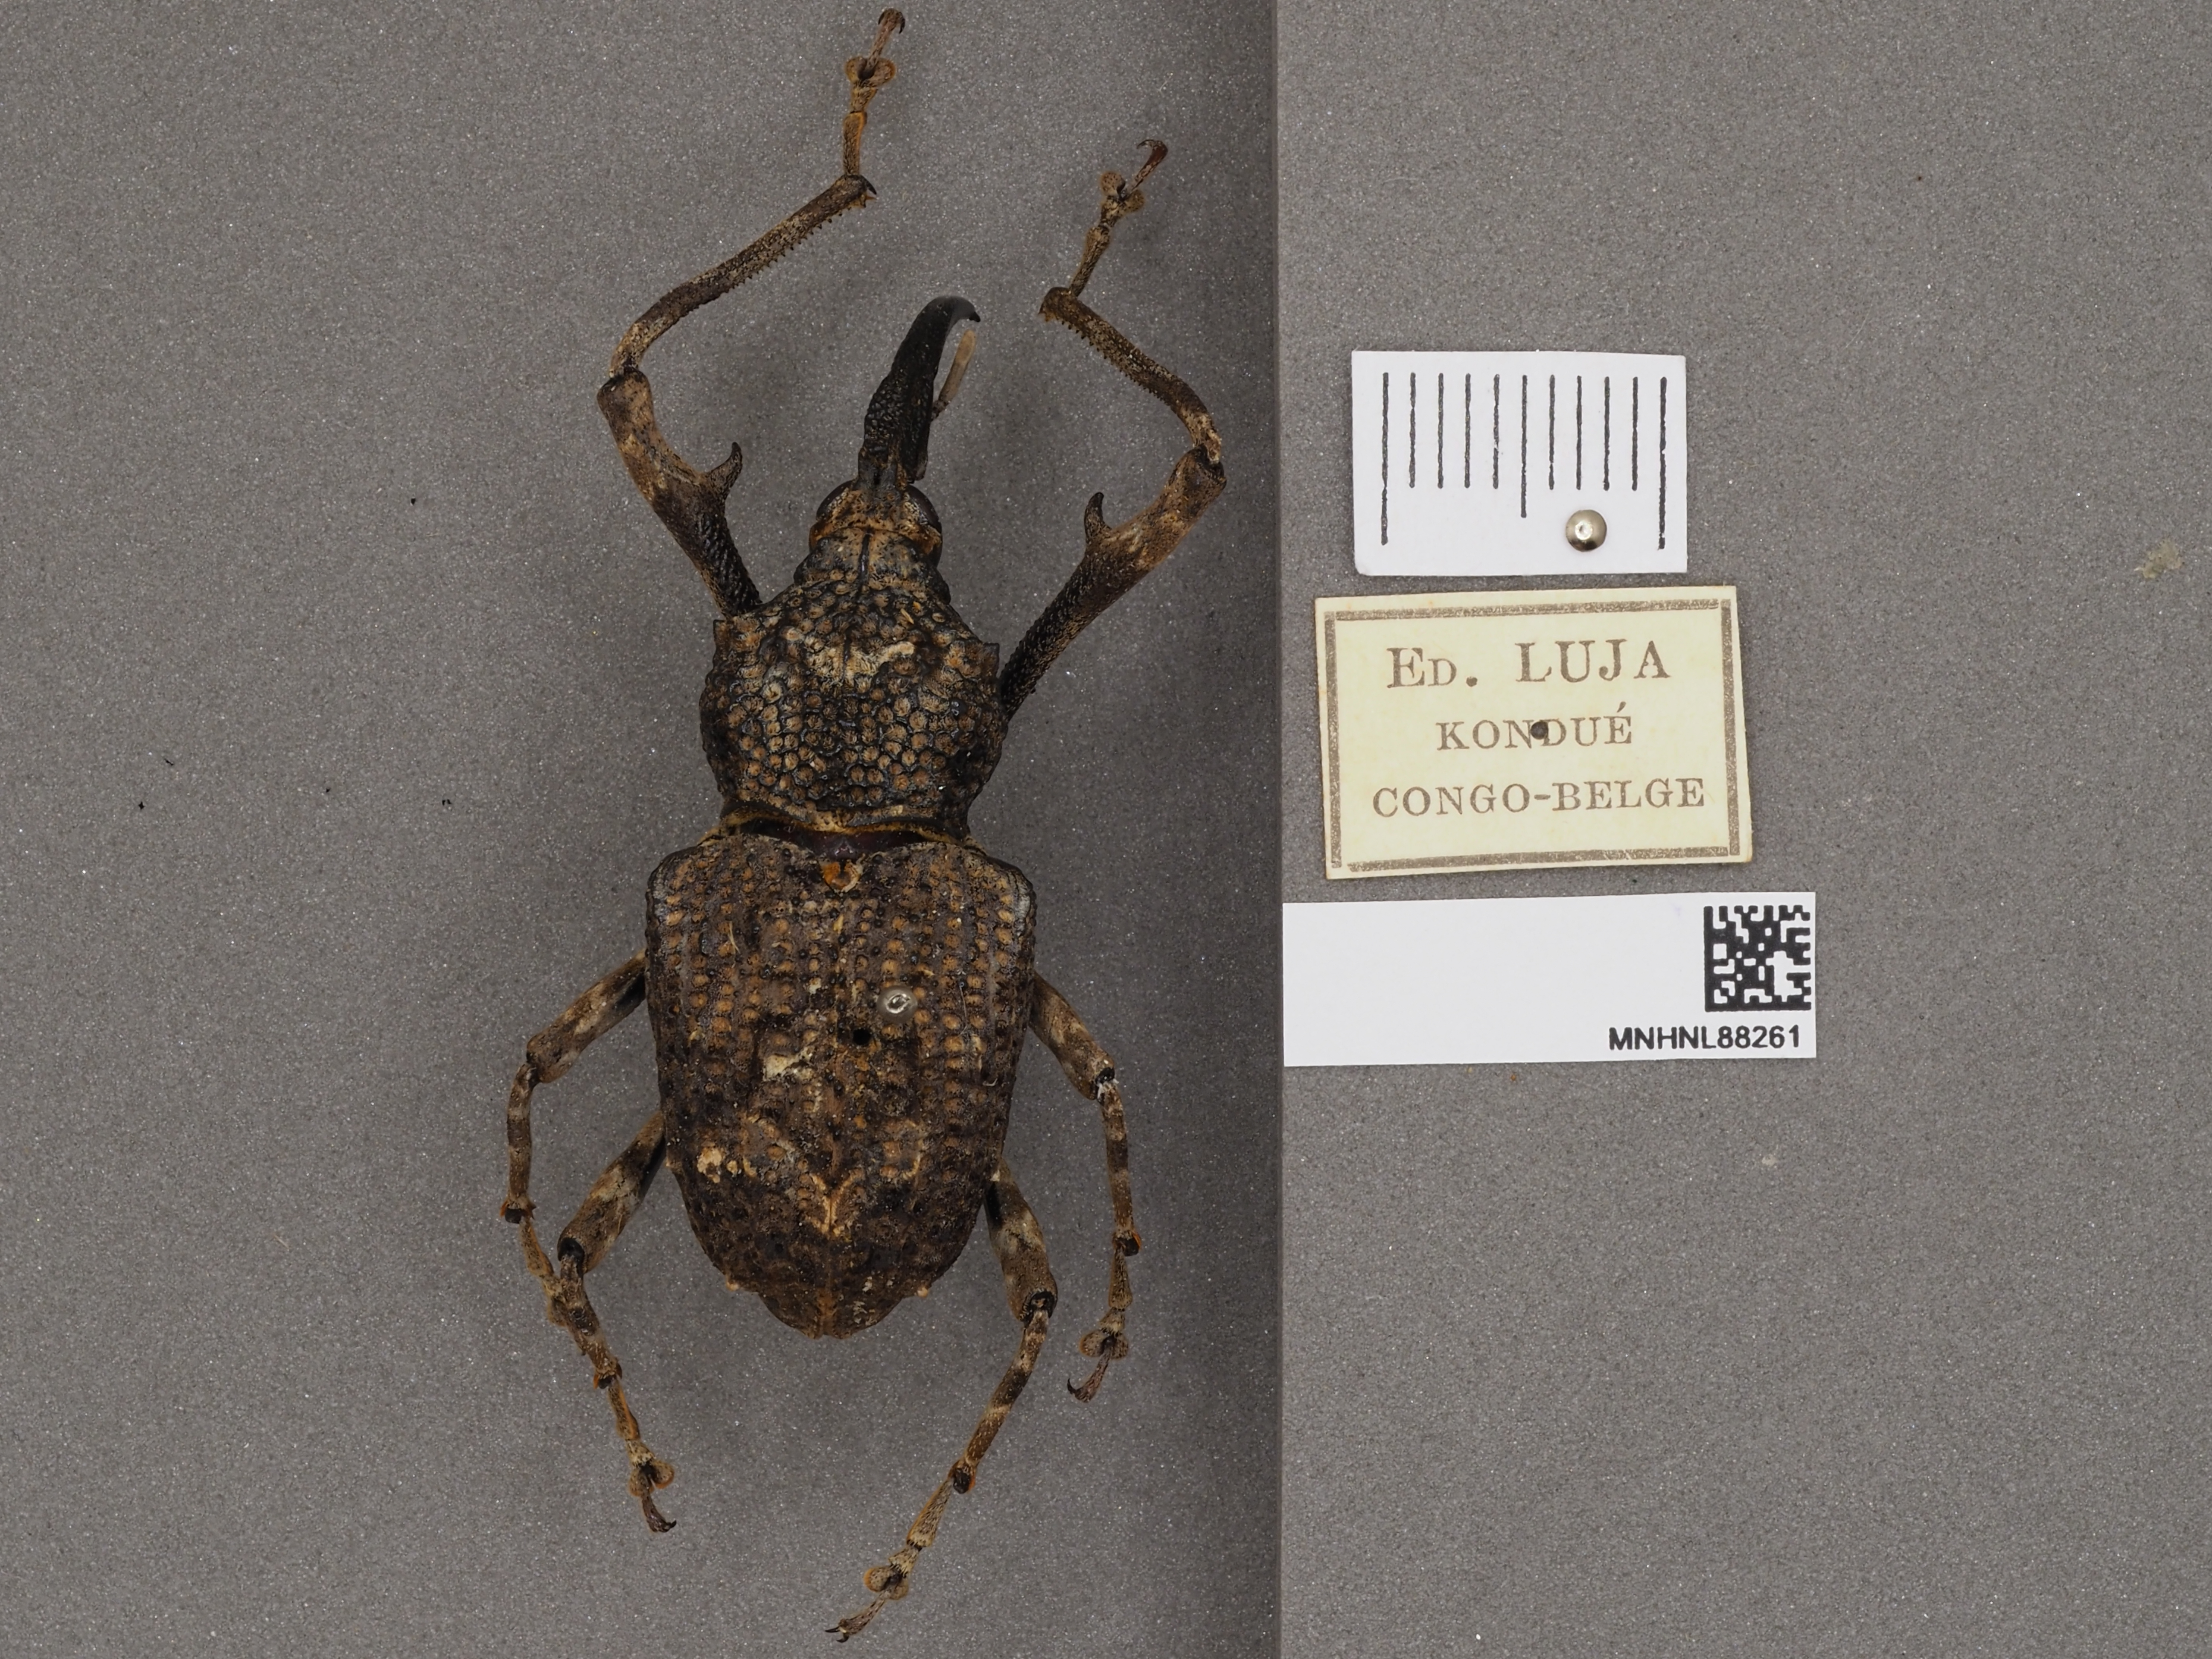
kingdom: Animalia
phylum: Arthropoda
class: Insecta
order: Coleoptera
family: Curculionidae
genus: Mecocorynus
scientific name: Mecocorynus
